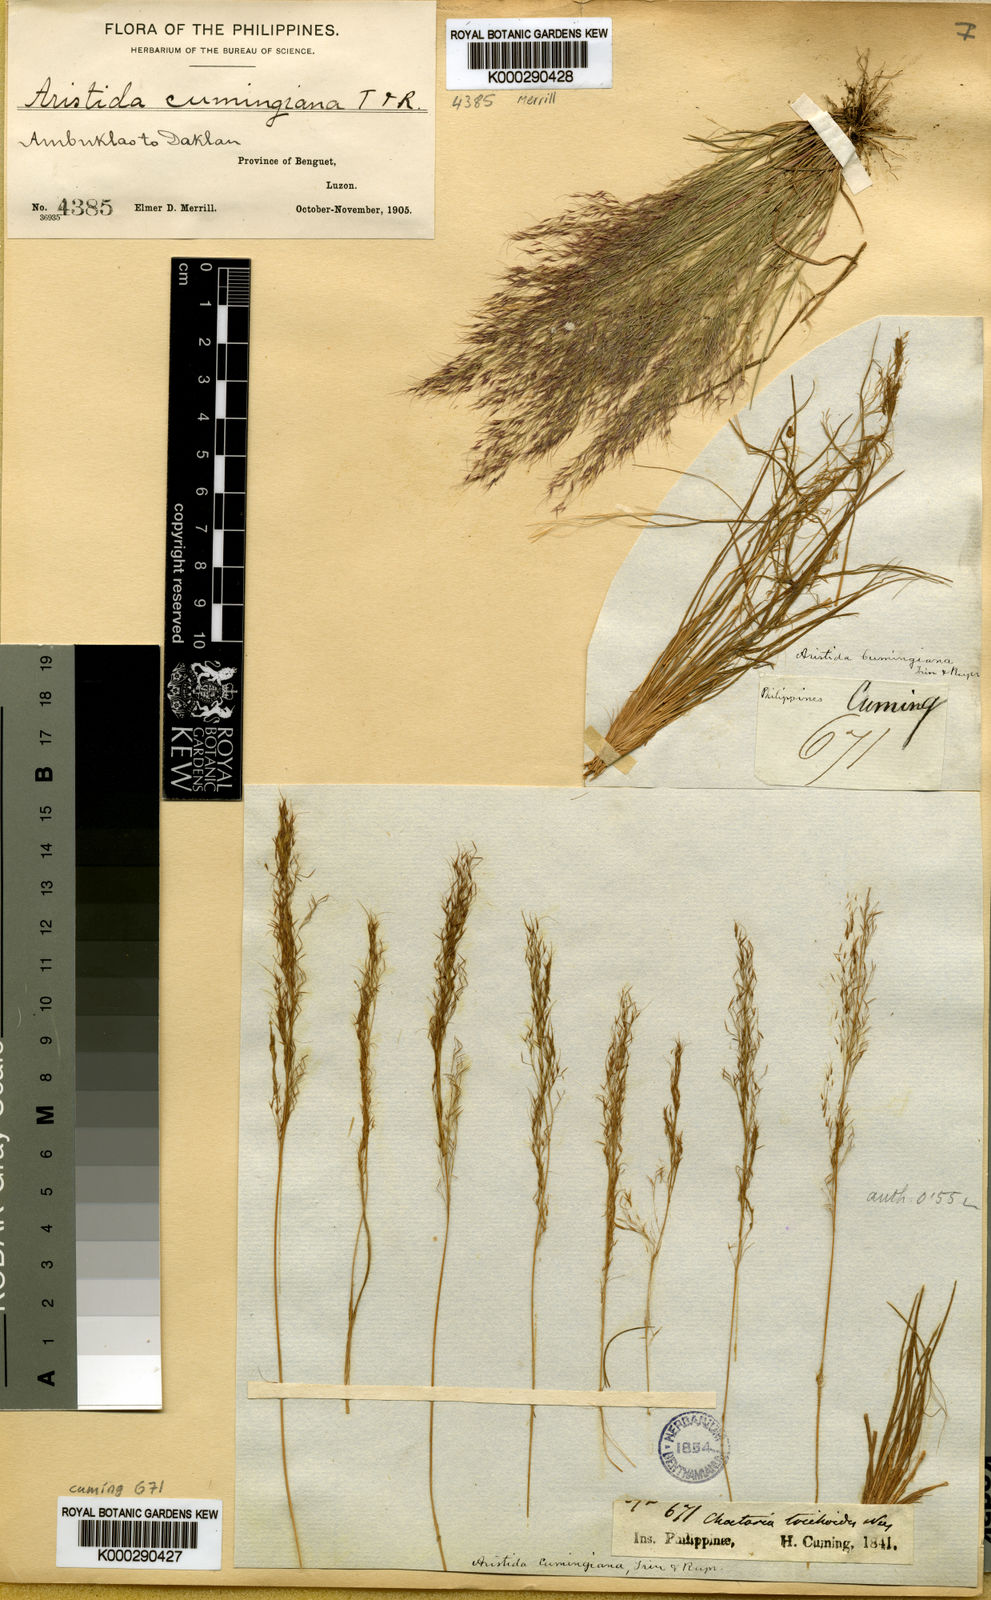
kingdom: Plantae
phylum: Tracheophyta
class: Liliopsida
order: Poales
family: Poaceae
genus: Aristida
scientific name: Aristida cumingiana
